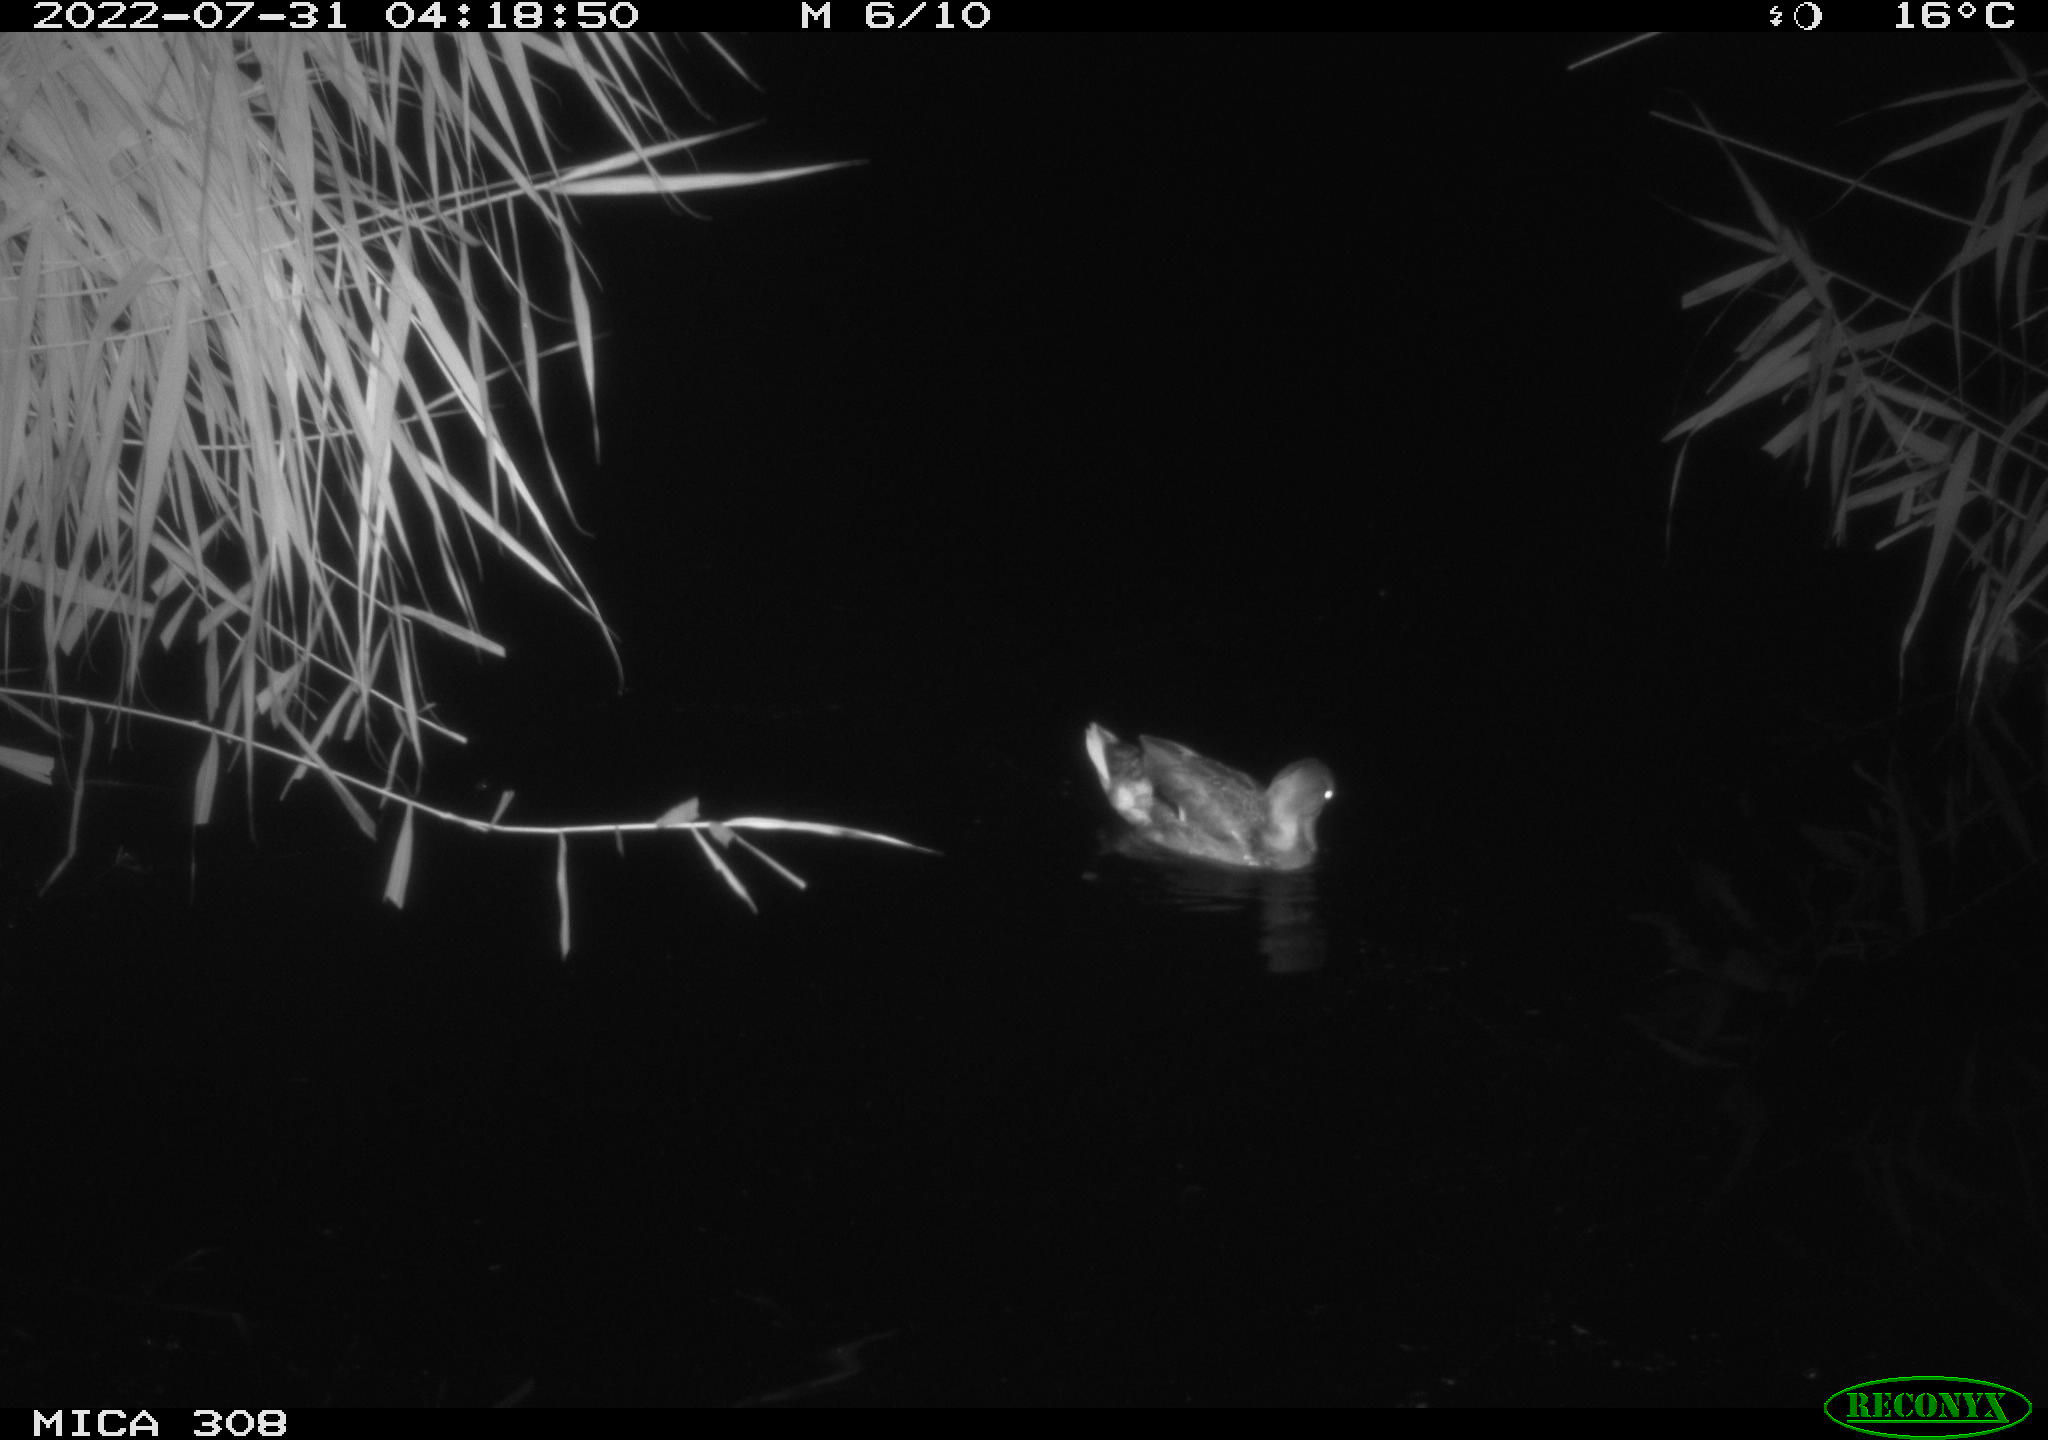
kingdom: Animalia
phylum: Chordata
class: Aves
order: Anseriformes
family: Anatidae
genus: Anas
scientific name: Anas platyrhynchos
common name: Mallard
